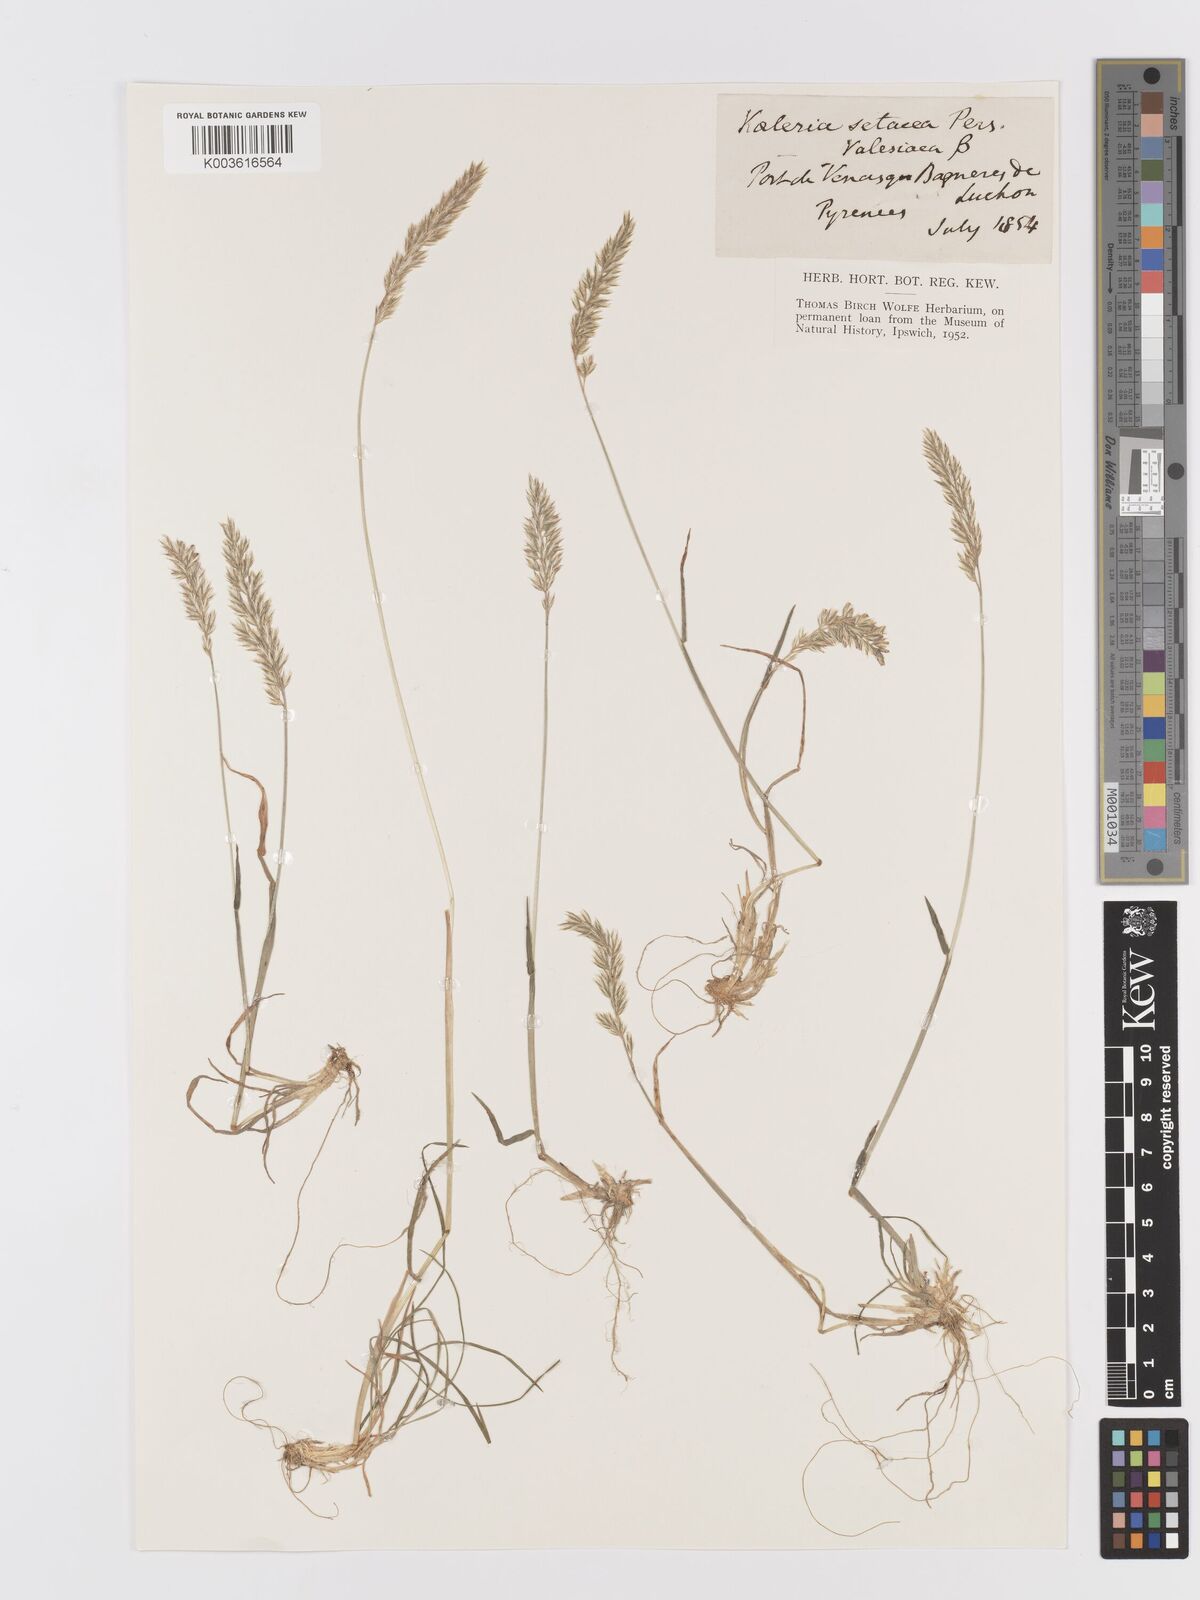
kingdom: Plantae
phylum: Tracheophyta
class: Liliopsida
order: Poales
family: Poaceae
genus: Koeleria
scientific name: Koeleria vallesiana
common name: Somerset hair-grass
